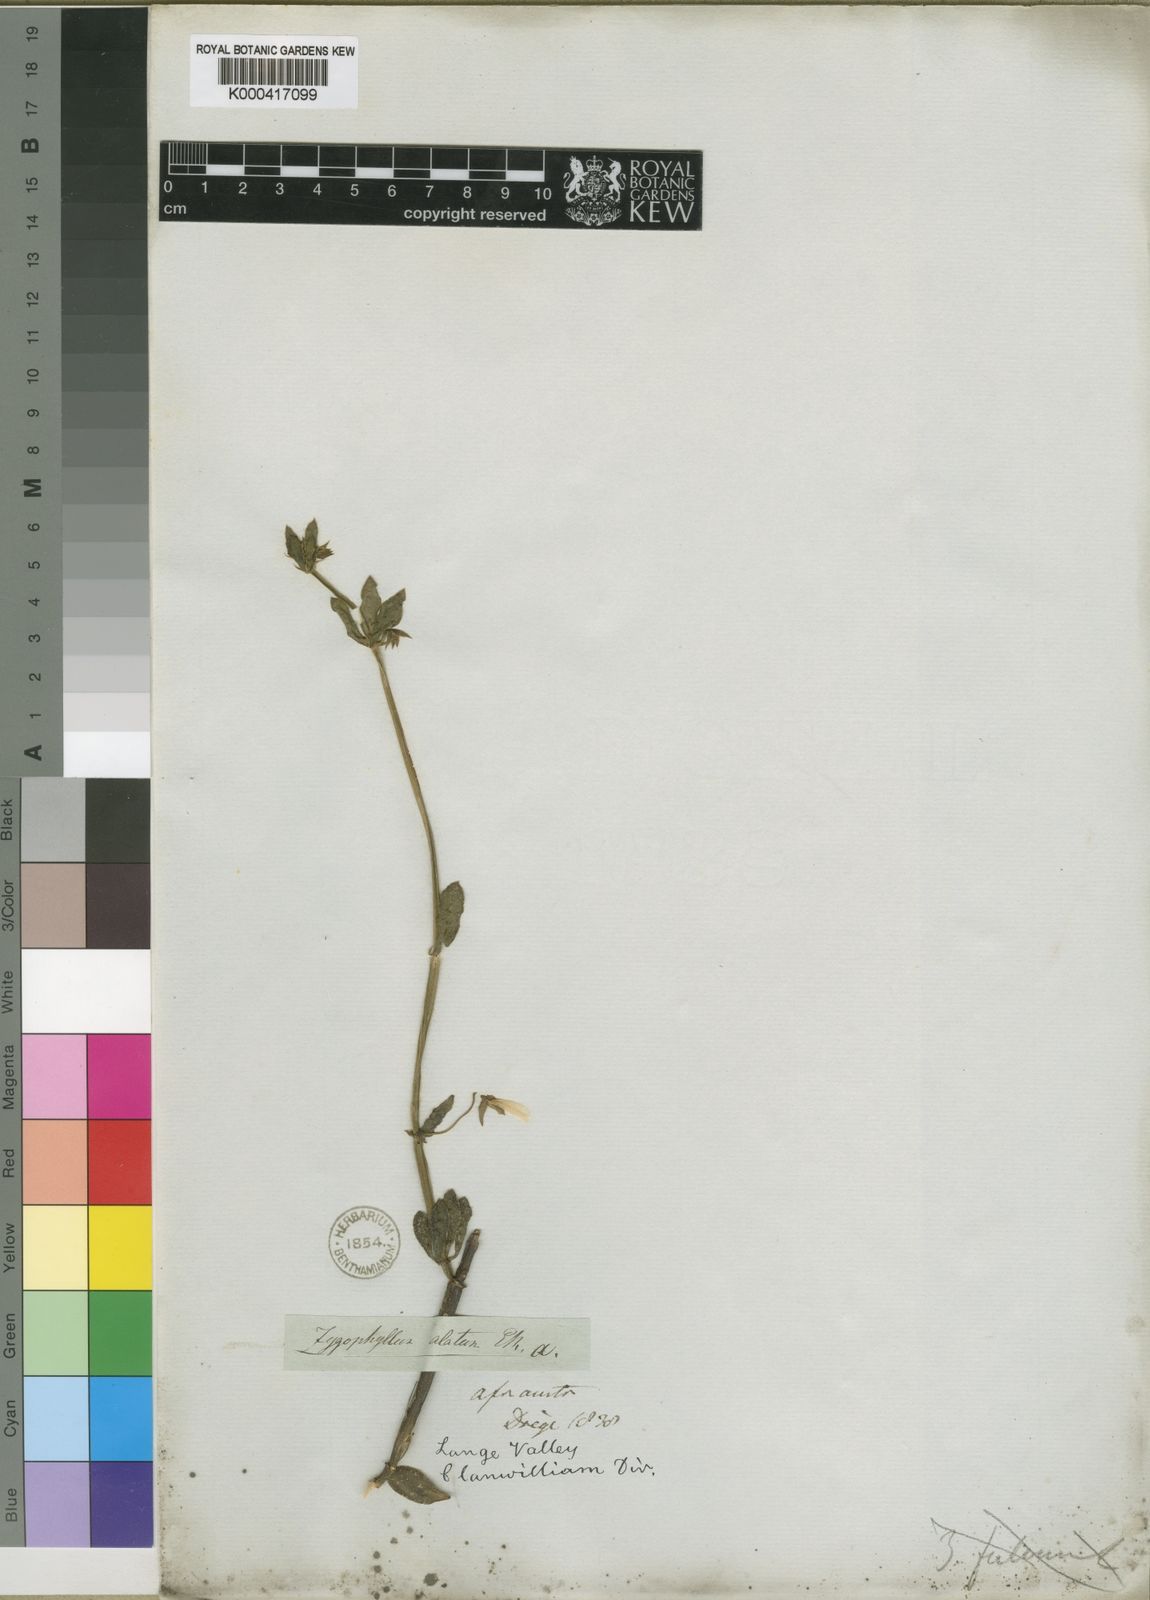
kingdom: Plantae
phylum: Tracheophyta
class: Magnoliopsida
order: Zygophyllales
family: Zygophyllaceae
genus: Roepera
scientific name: Roepera fulva
